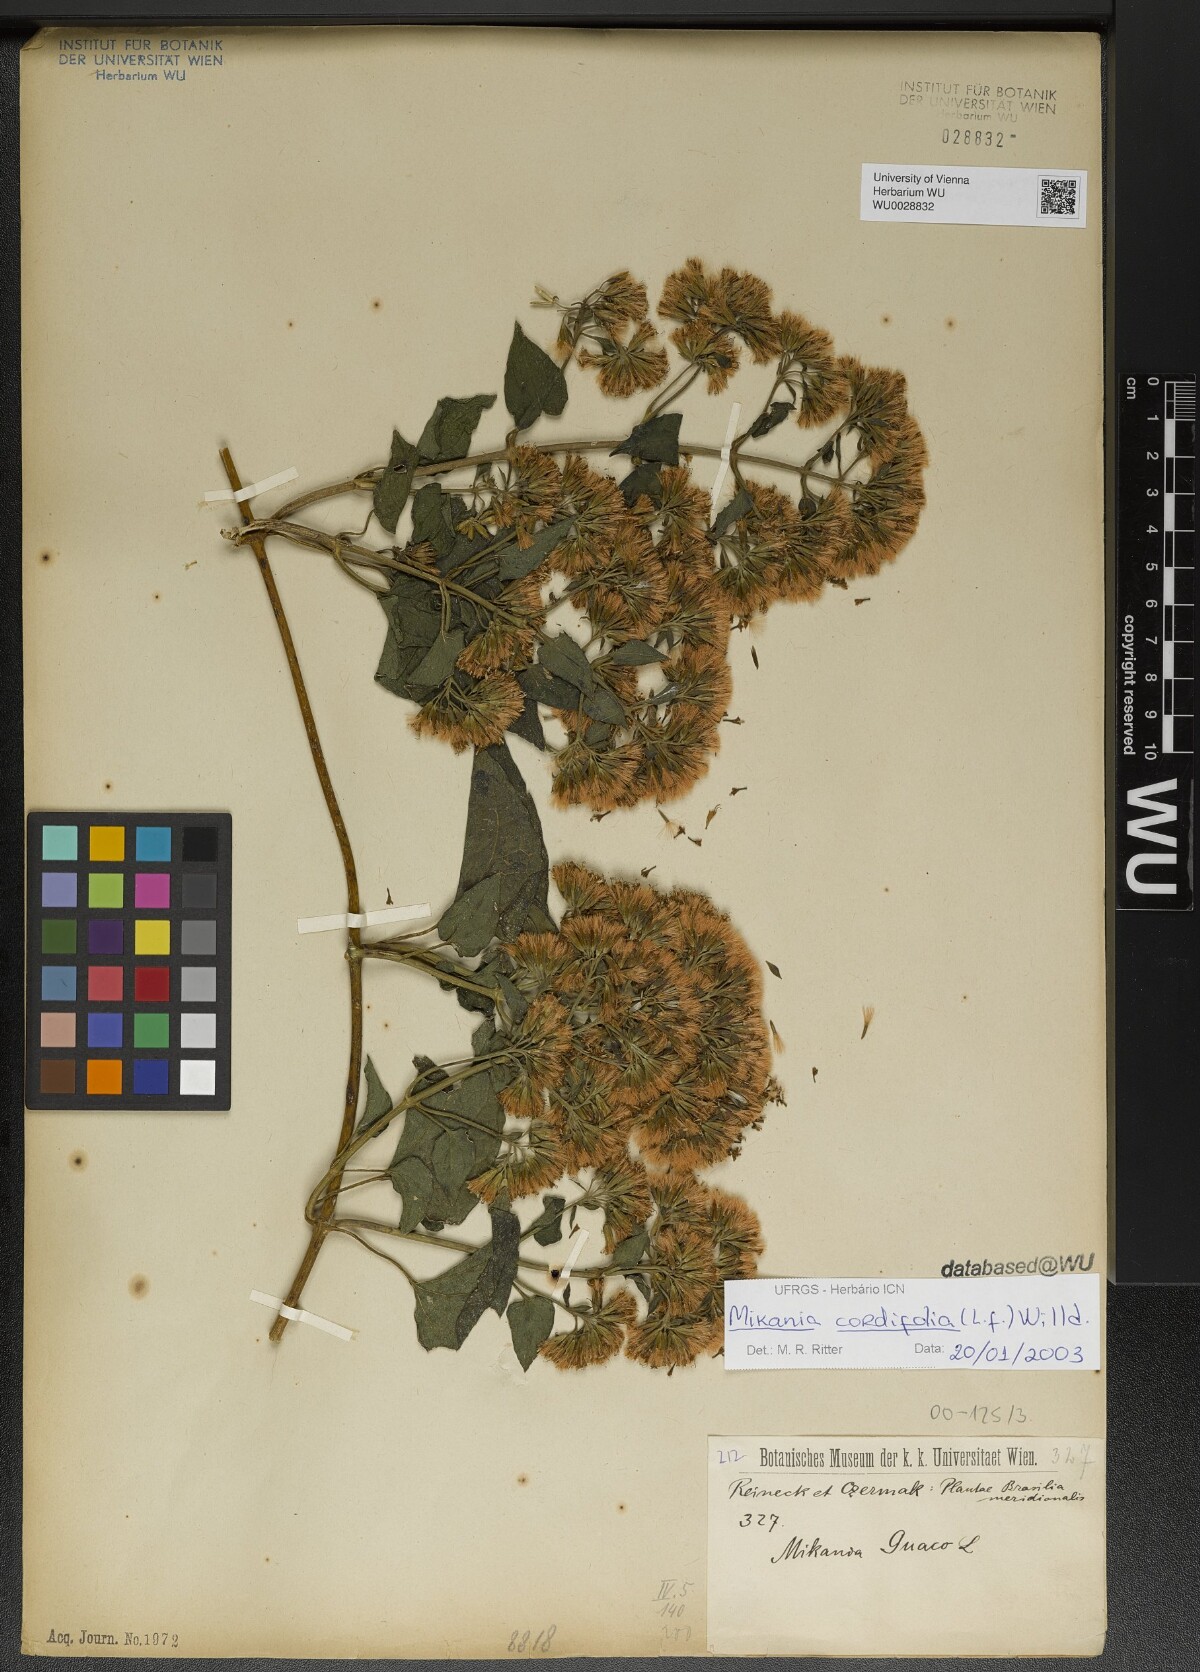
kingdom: Plantae
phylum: Tracheophyta
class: Magnoliopsida
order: Asterales
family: Asteraceae
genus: Mikania
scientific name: Mikania cordifolia
